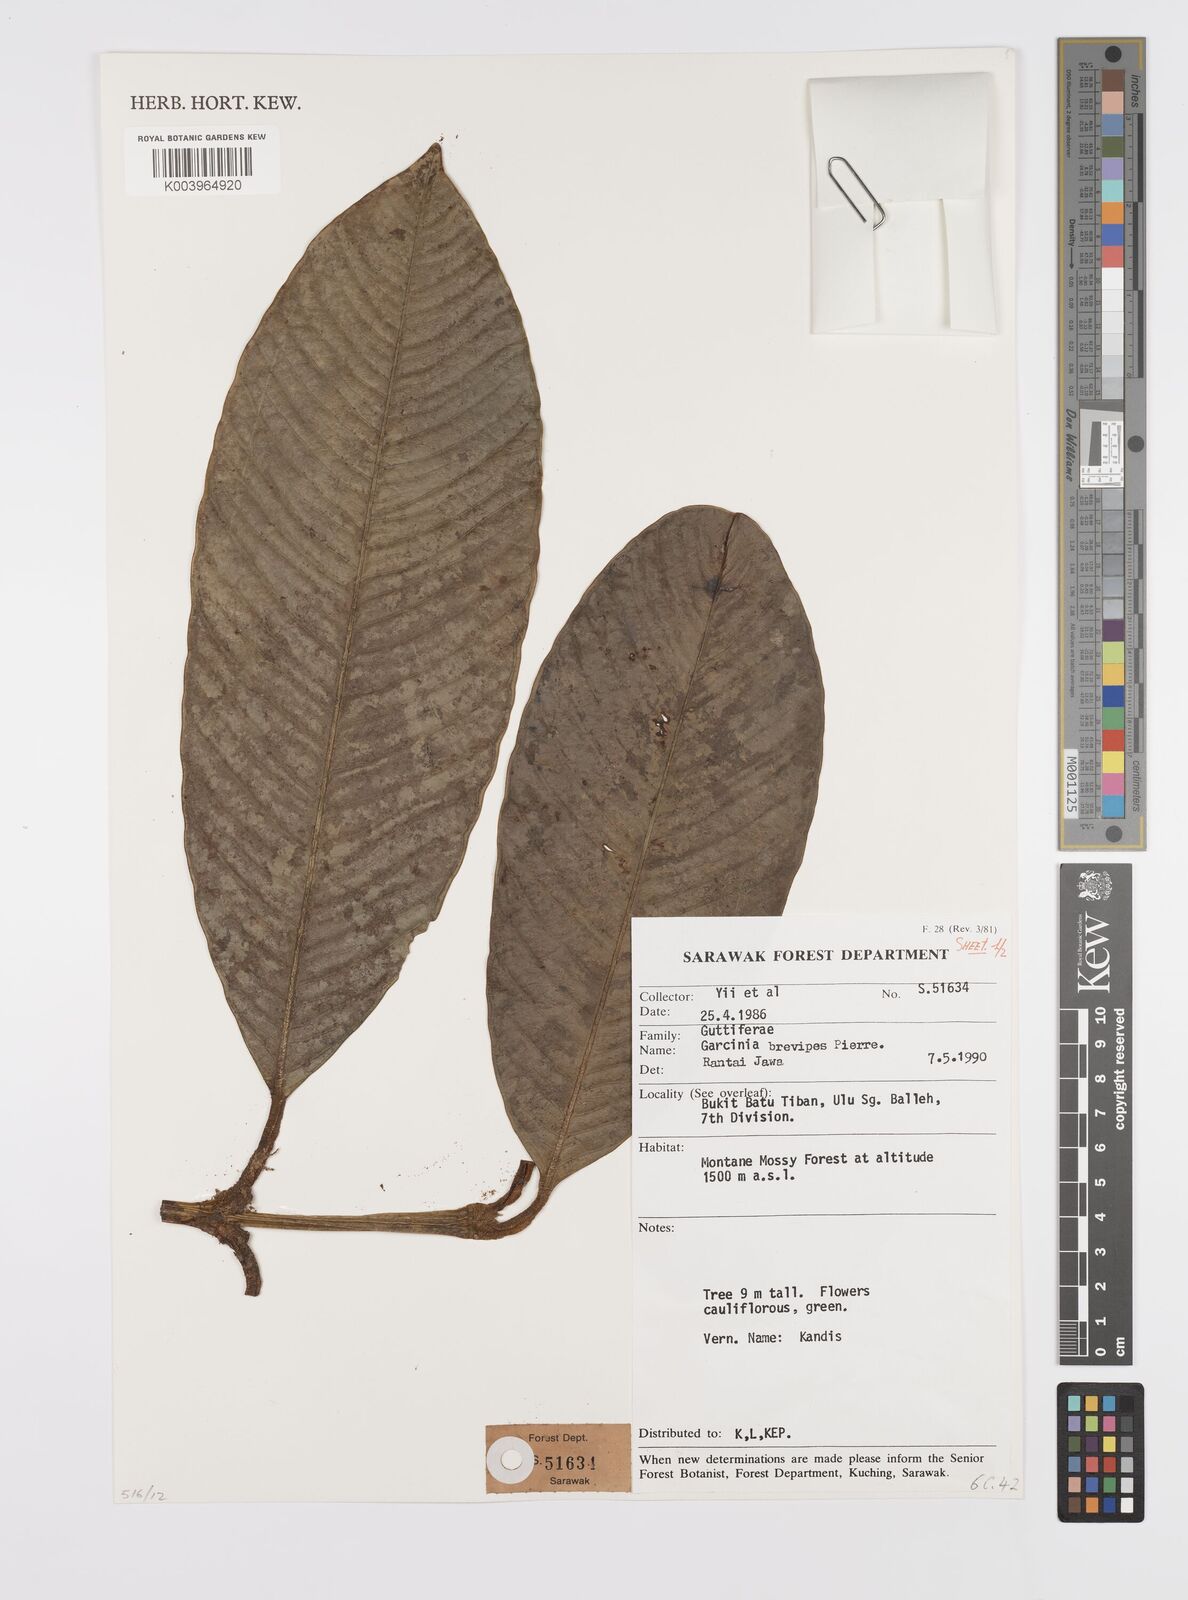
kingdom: Plantae
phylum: Tracheophyta
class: Magnoliopsida
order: Malpighiales
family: Clusiaceae
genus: Garcinia
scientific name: Garcinia brevipes
